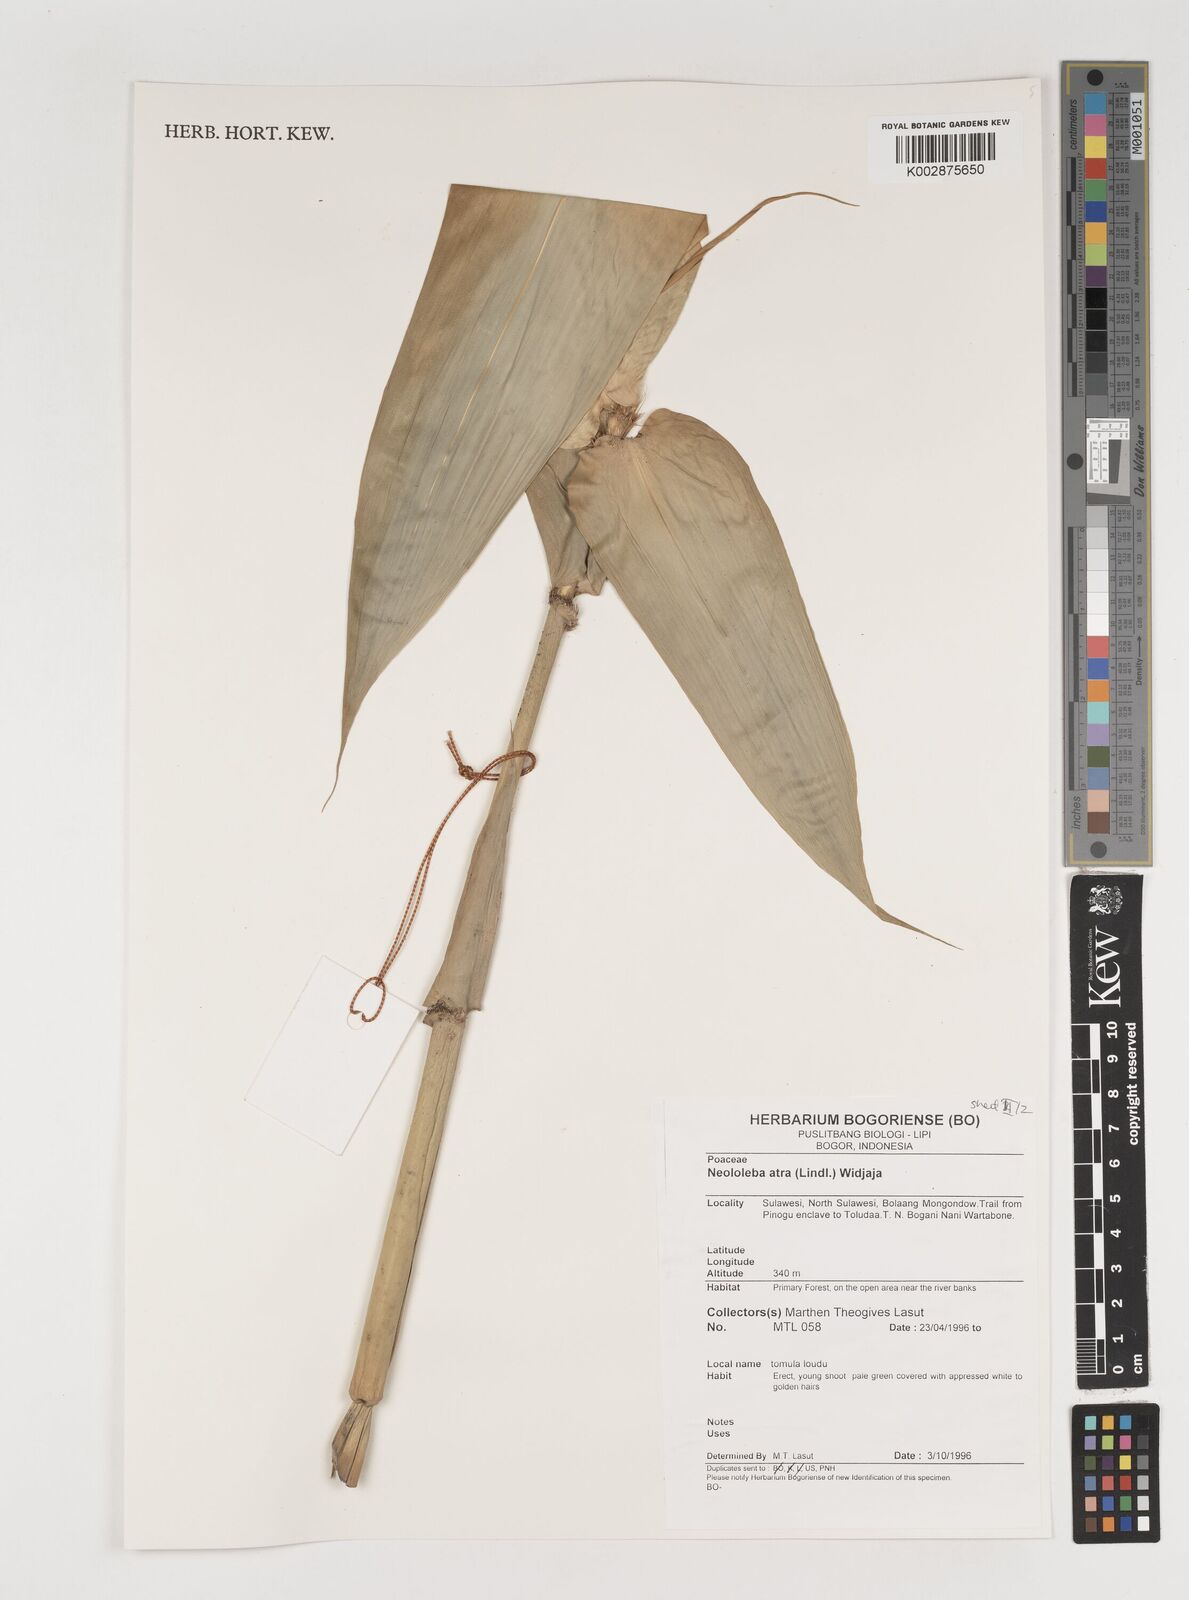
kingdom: Plantae
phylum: Tracheophyta
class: Liliopsida
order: Poales
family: Poaceae
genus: Neololeba
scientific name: Neololeba
